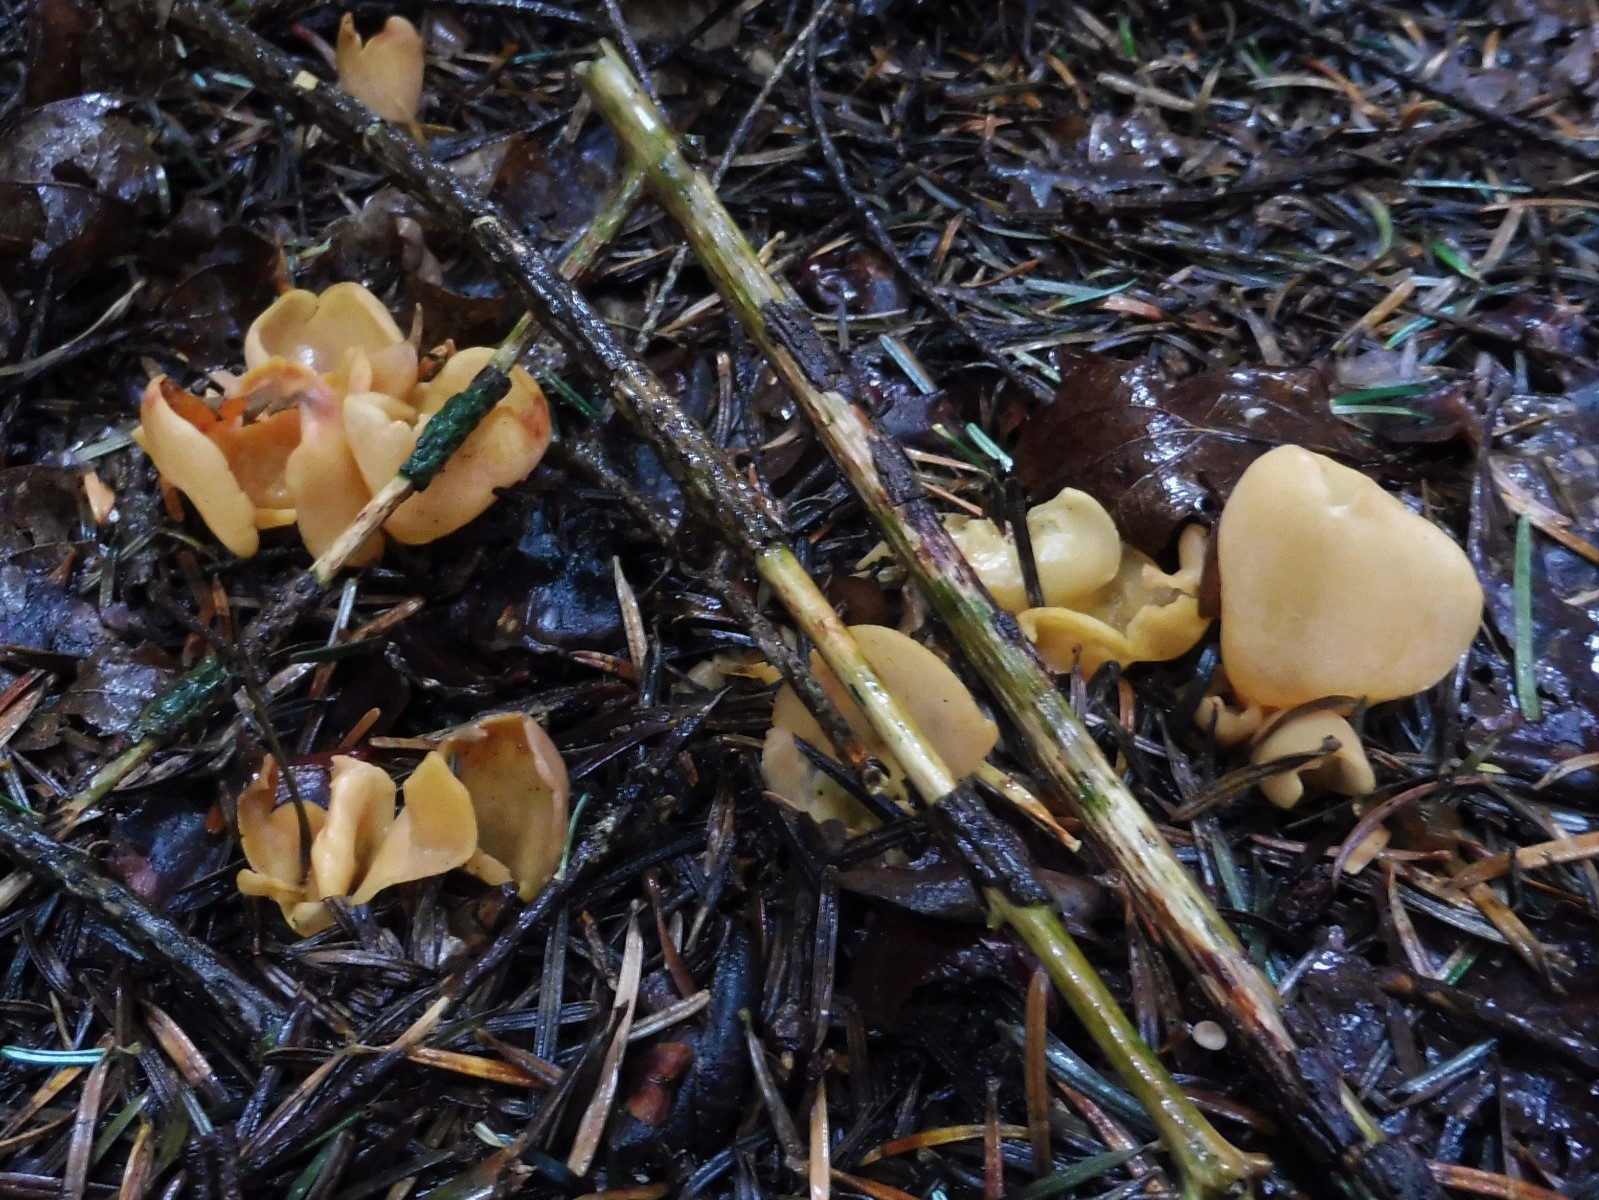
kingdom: Fungi
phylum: Ascomycota
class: Pezizomycetes
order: Pezizales
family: Otideaceae
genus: Otidea
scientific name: Otidea onotica
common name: æsel-ørebæger
